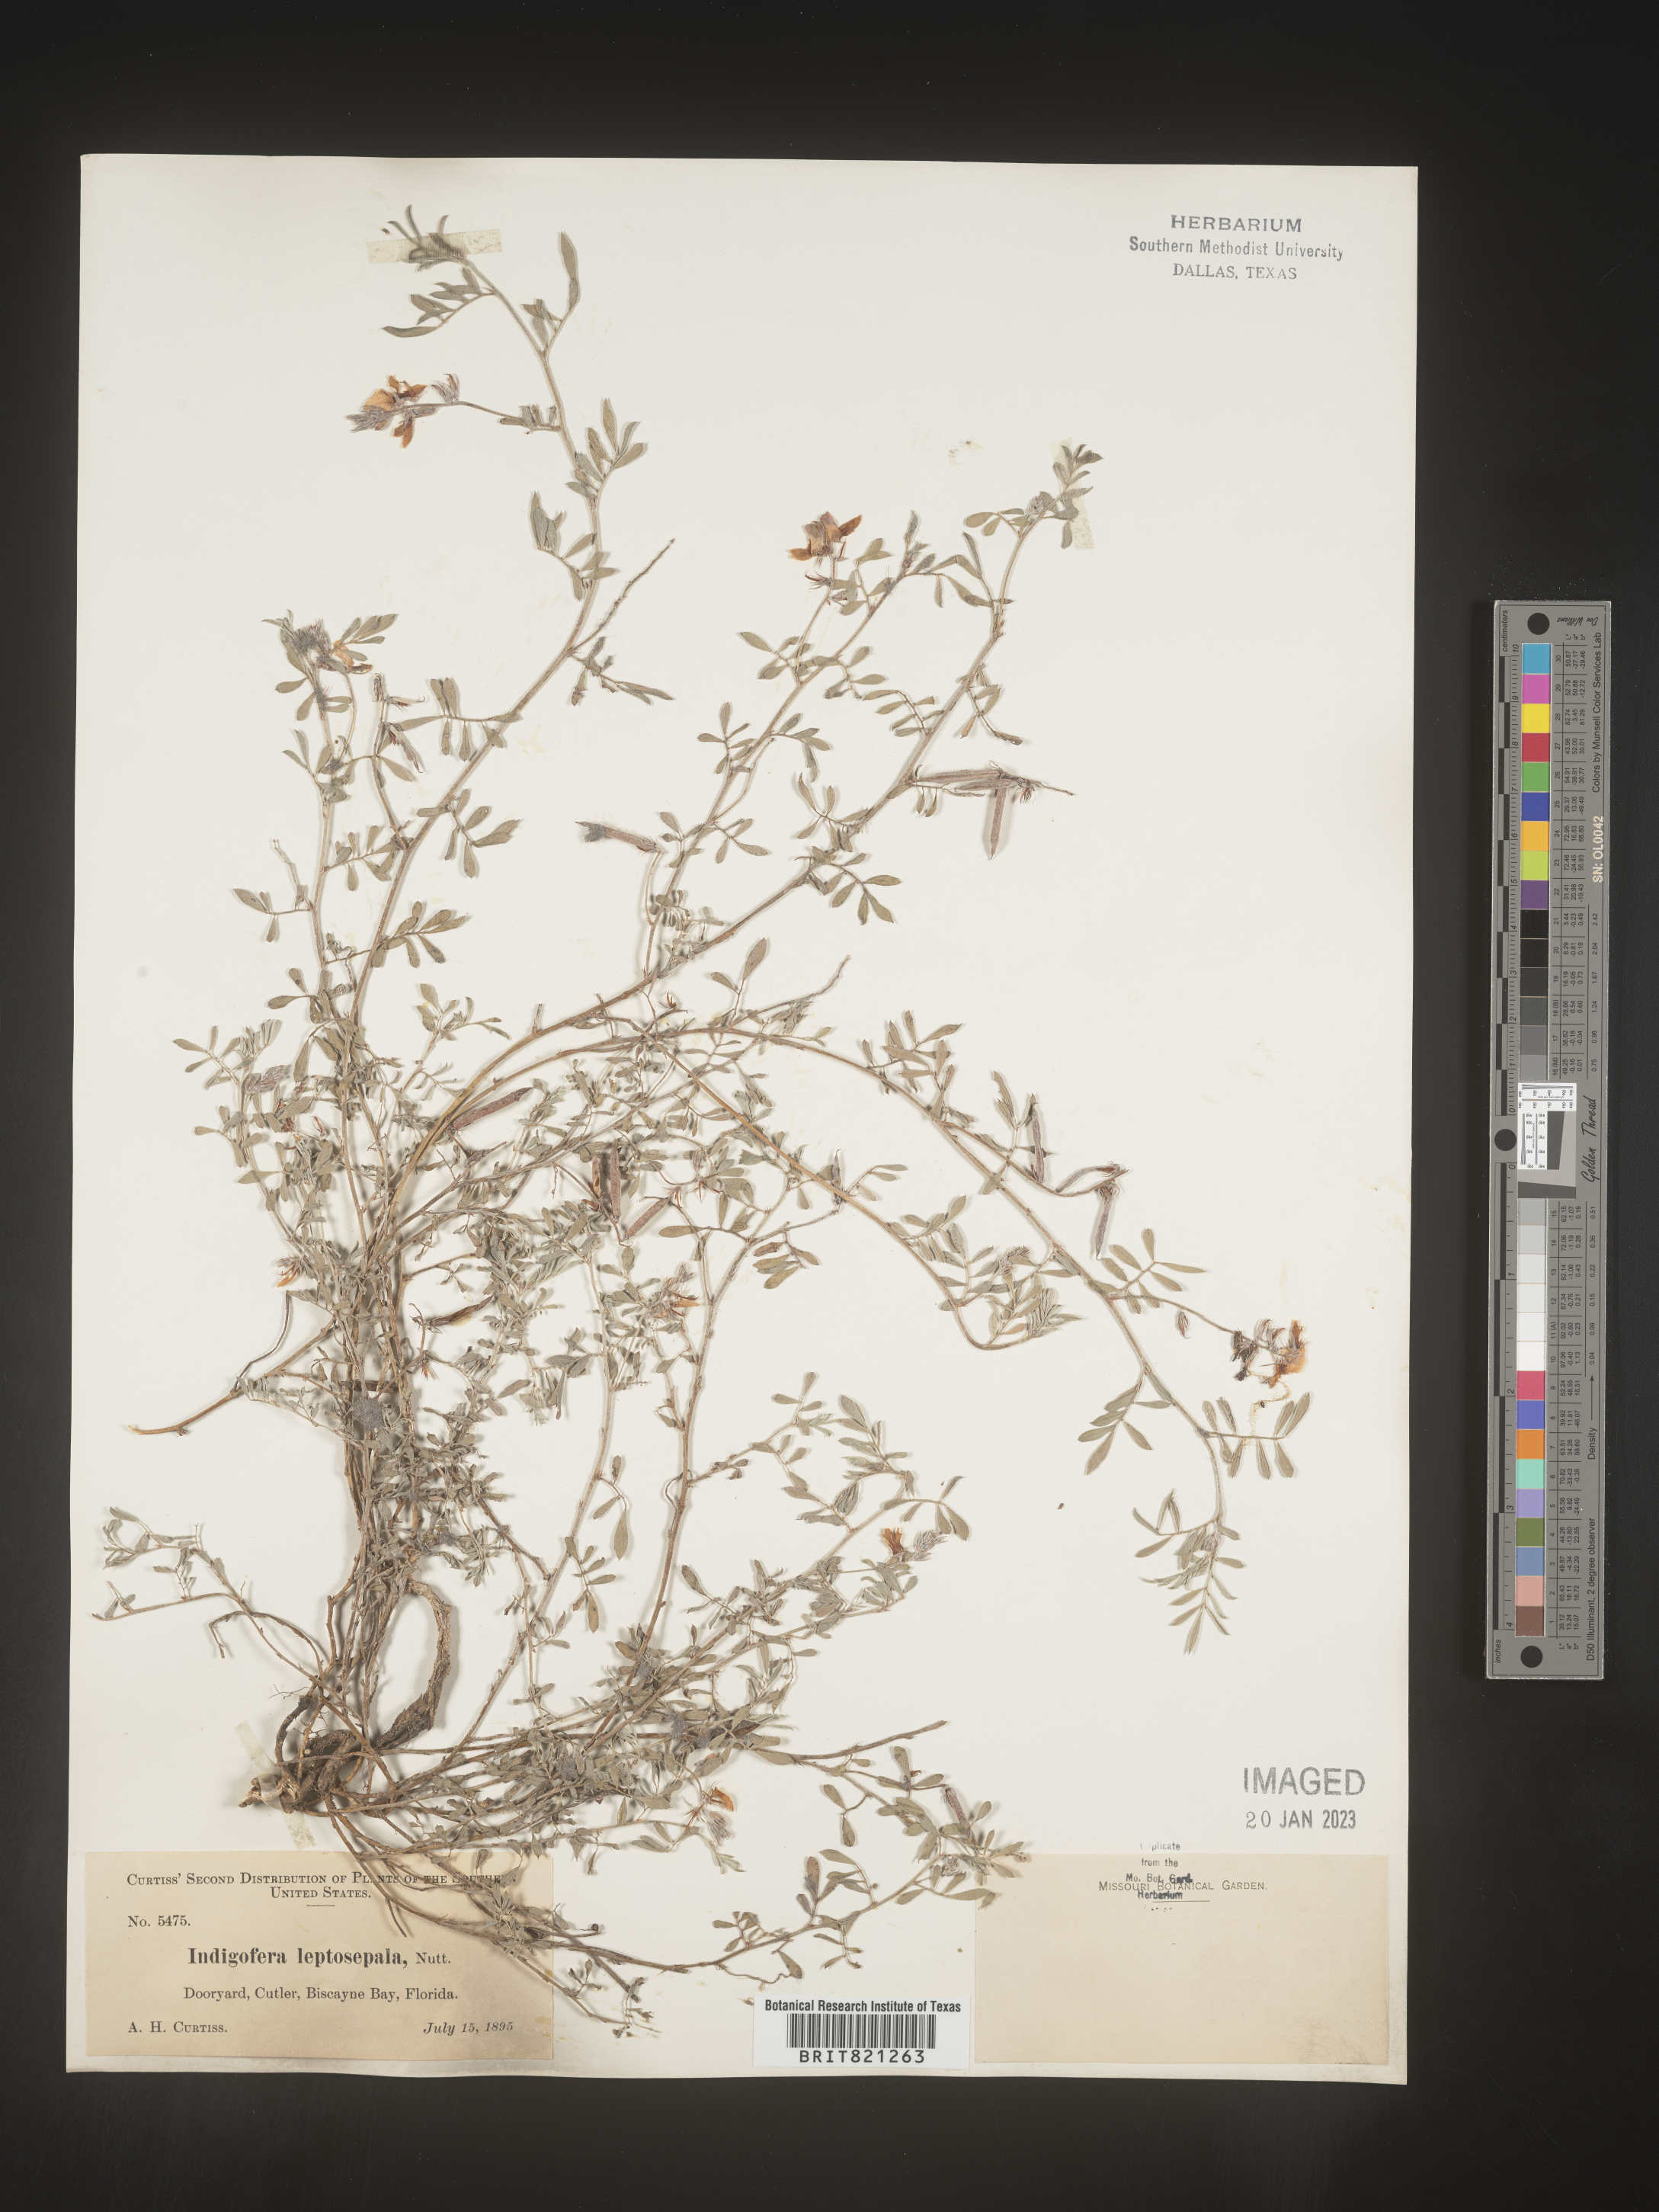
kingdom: Plantae
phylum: Tracheophyta
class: Magnoliopsida
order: Fabales
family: Fabaceae
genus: Indigofera
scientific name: Indigofera miniata
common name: Coast indigo
